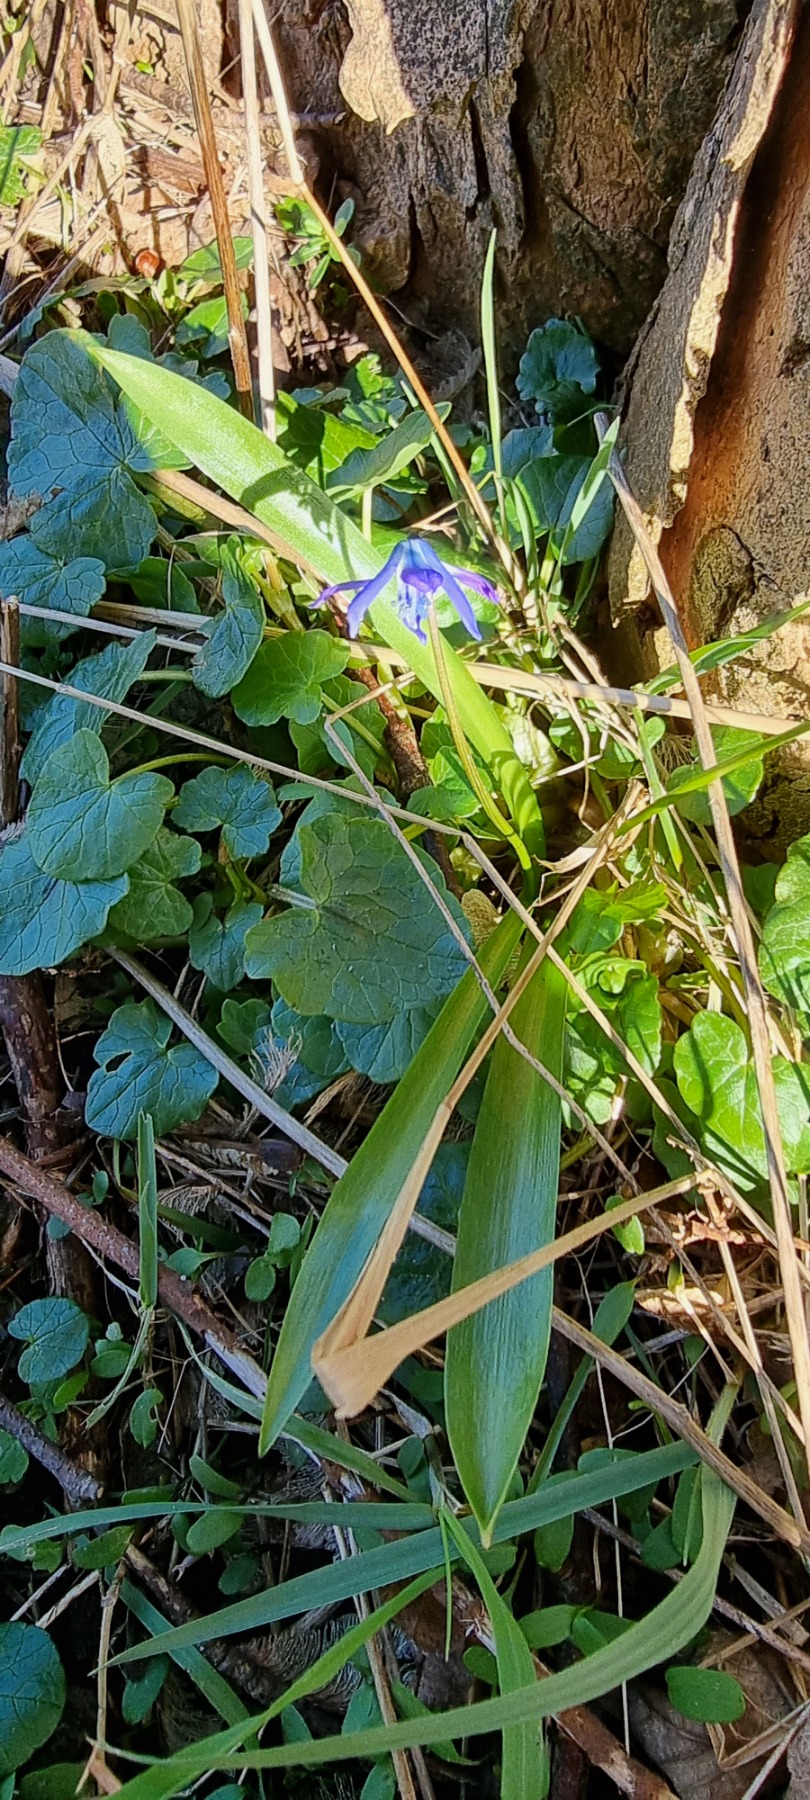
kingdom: Plantae
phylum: Tracheophyta
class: Liliopsida
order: Asparagales
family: Asparagaceae
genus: Scilla
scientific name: Scilla siberica
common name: Russisk skilla
